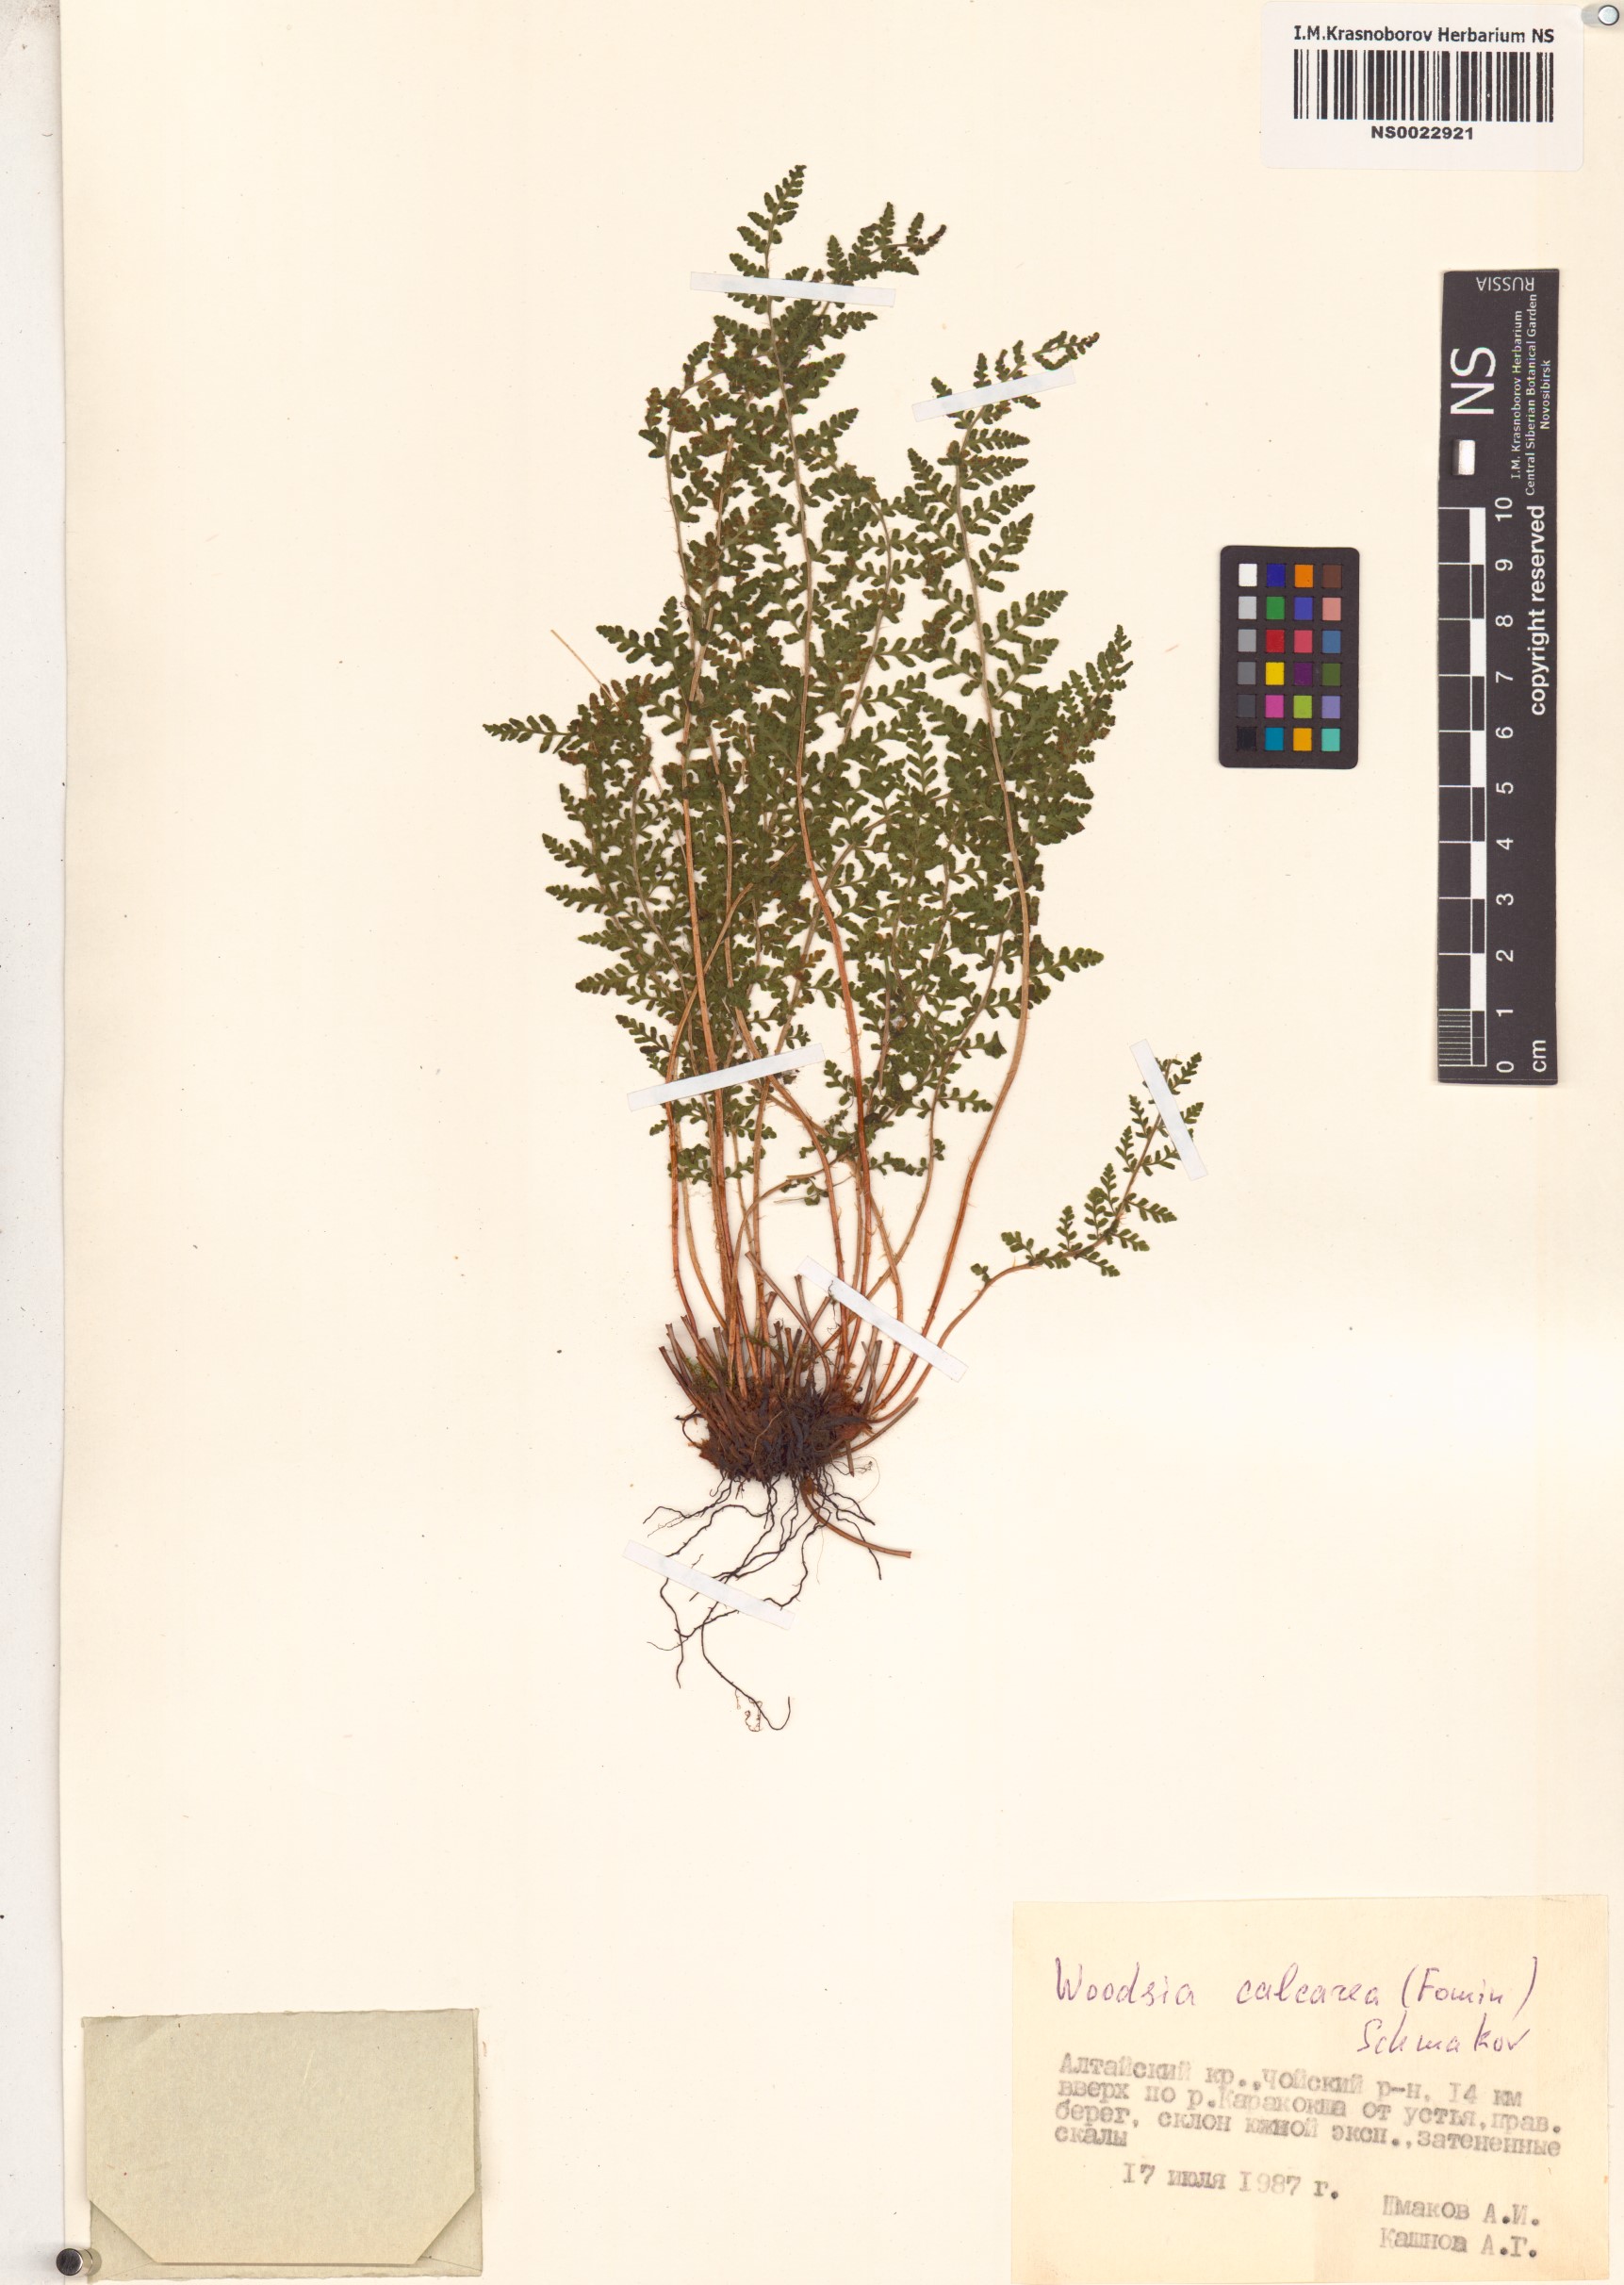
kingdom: Plantae
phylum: Tracheophyta
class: Polypodiopsida
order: Polypodiales
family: Woodsiaceae
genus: Woodsia
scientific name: Woodsia calcarea
